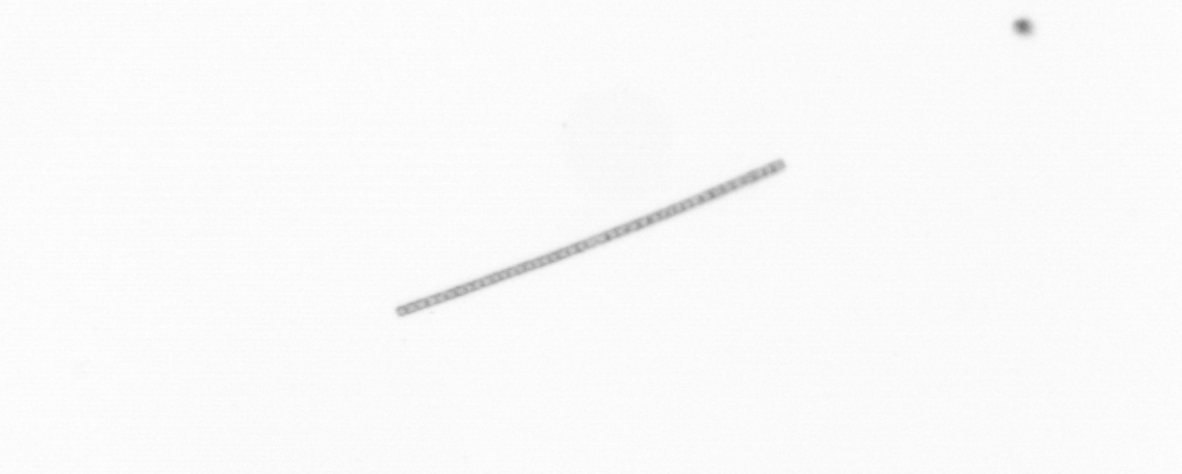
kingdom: Chromista
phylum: Ochrophyta
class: Bacillariophyceae
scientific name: Bacillariophyceae
